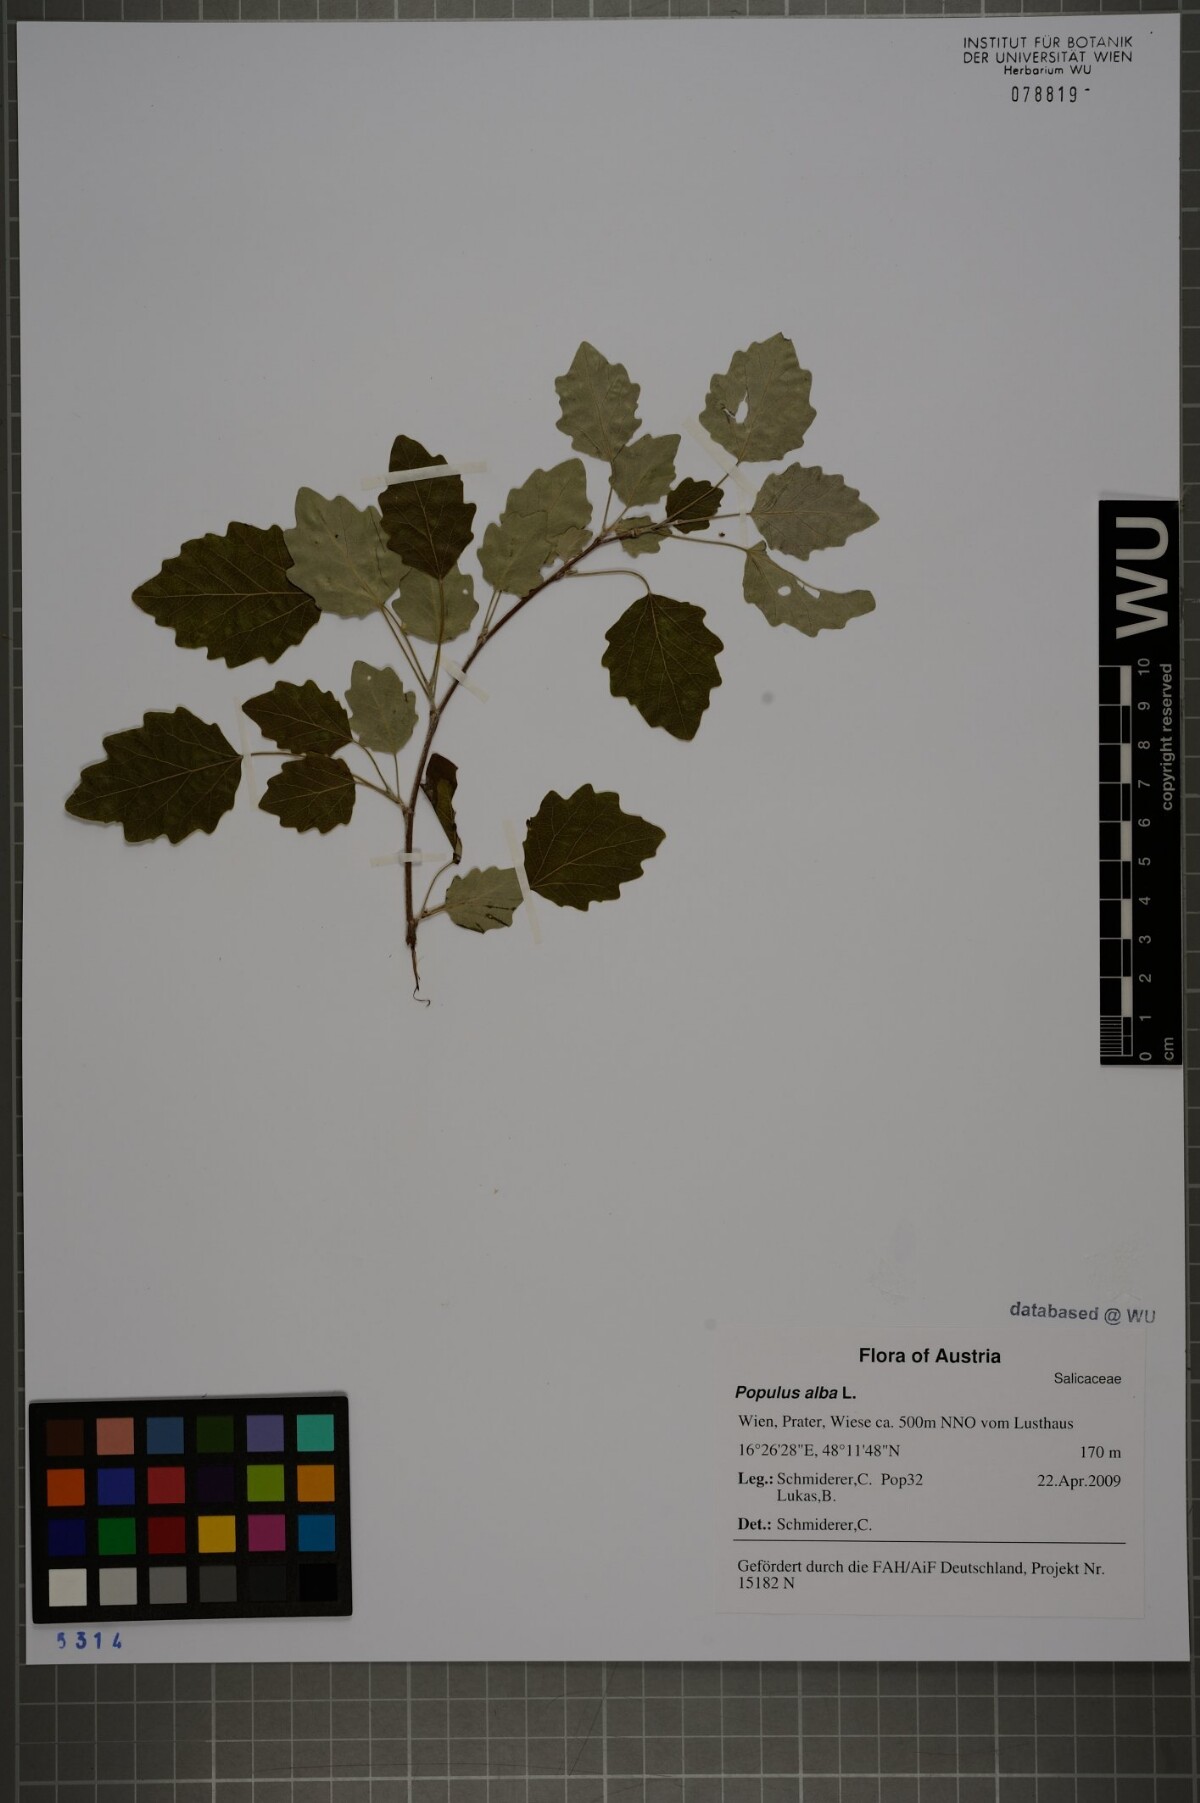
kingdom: Plantae
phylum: Tracheophyta
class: Magnoliopsida
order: Malpighiales
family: Salicaceae
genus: Populus
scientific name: Populus alba
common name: White poplar
